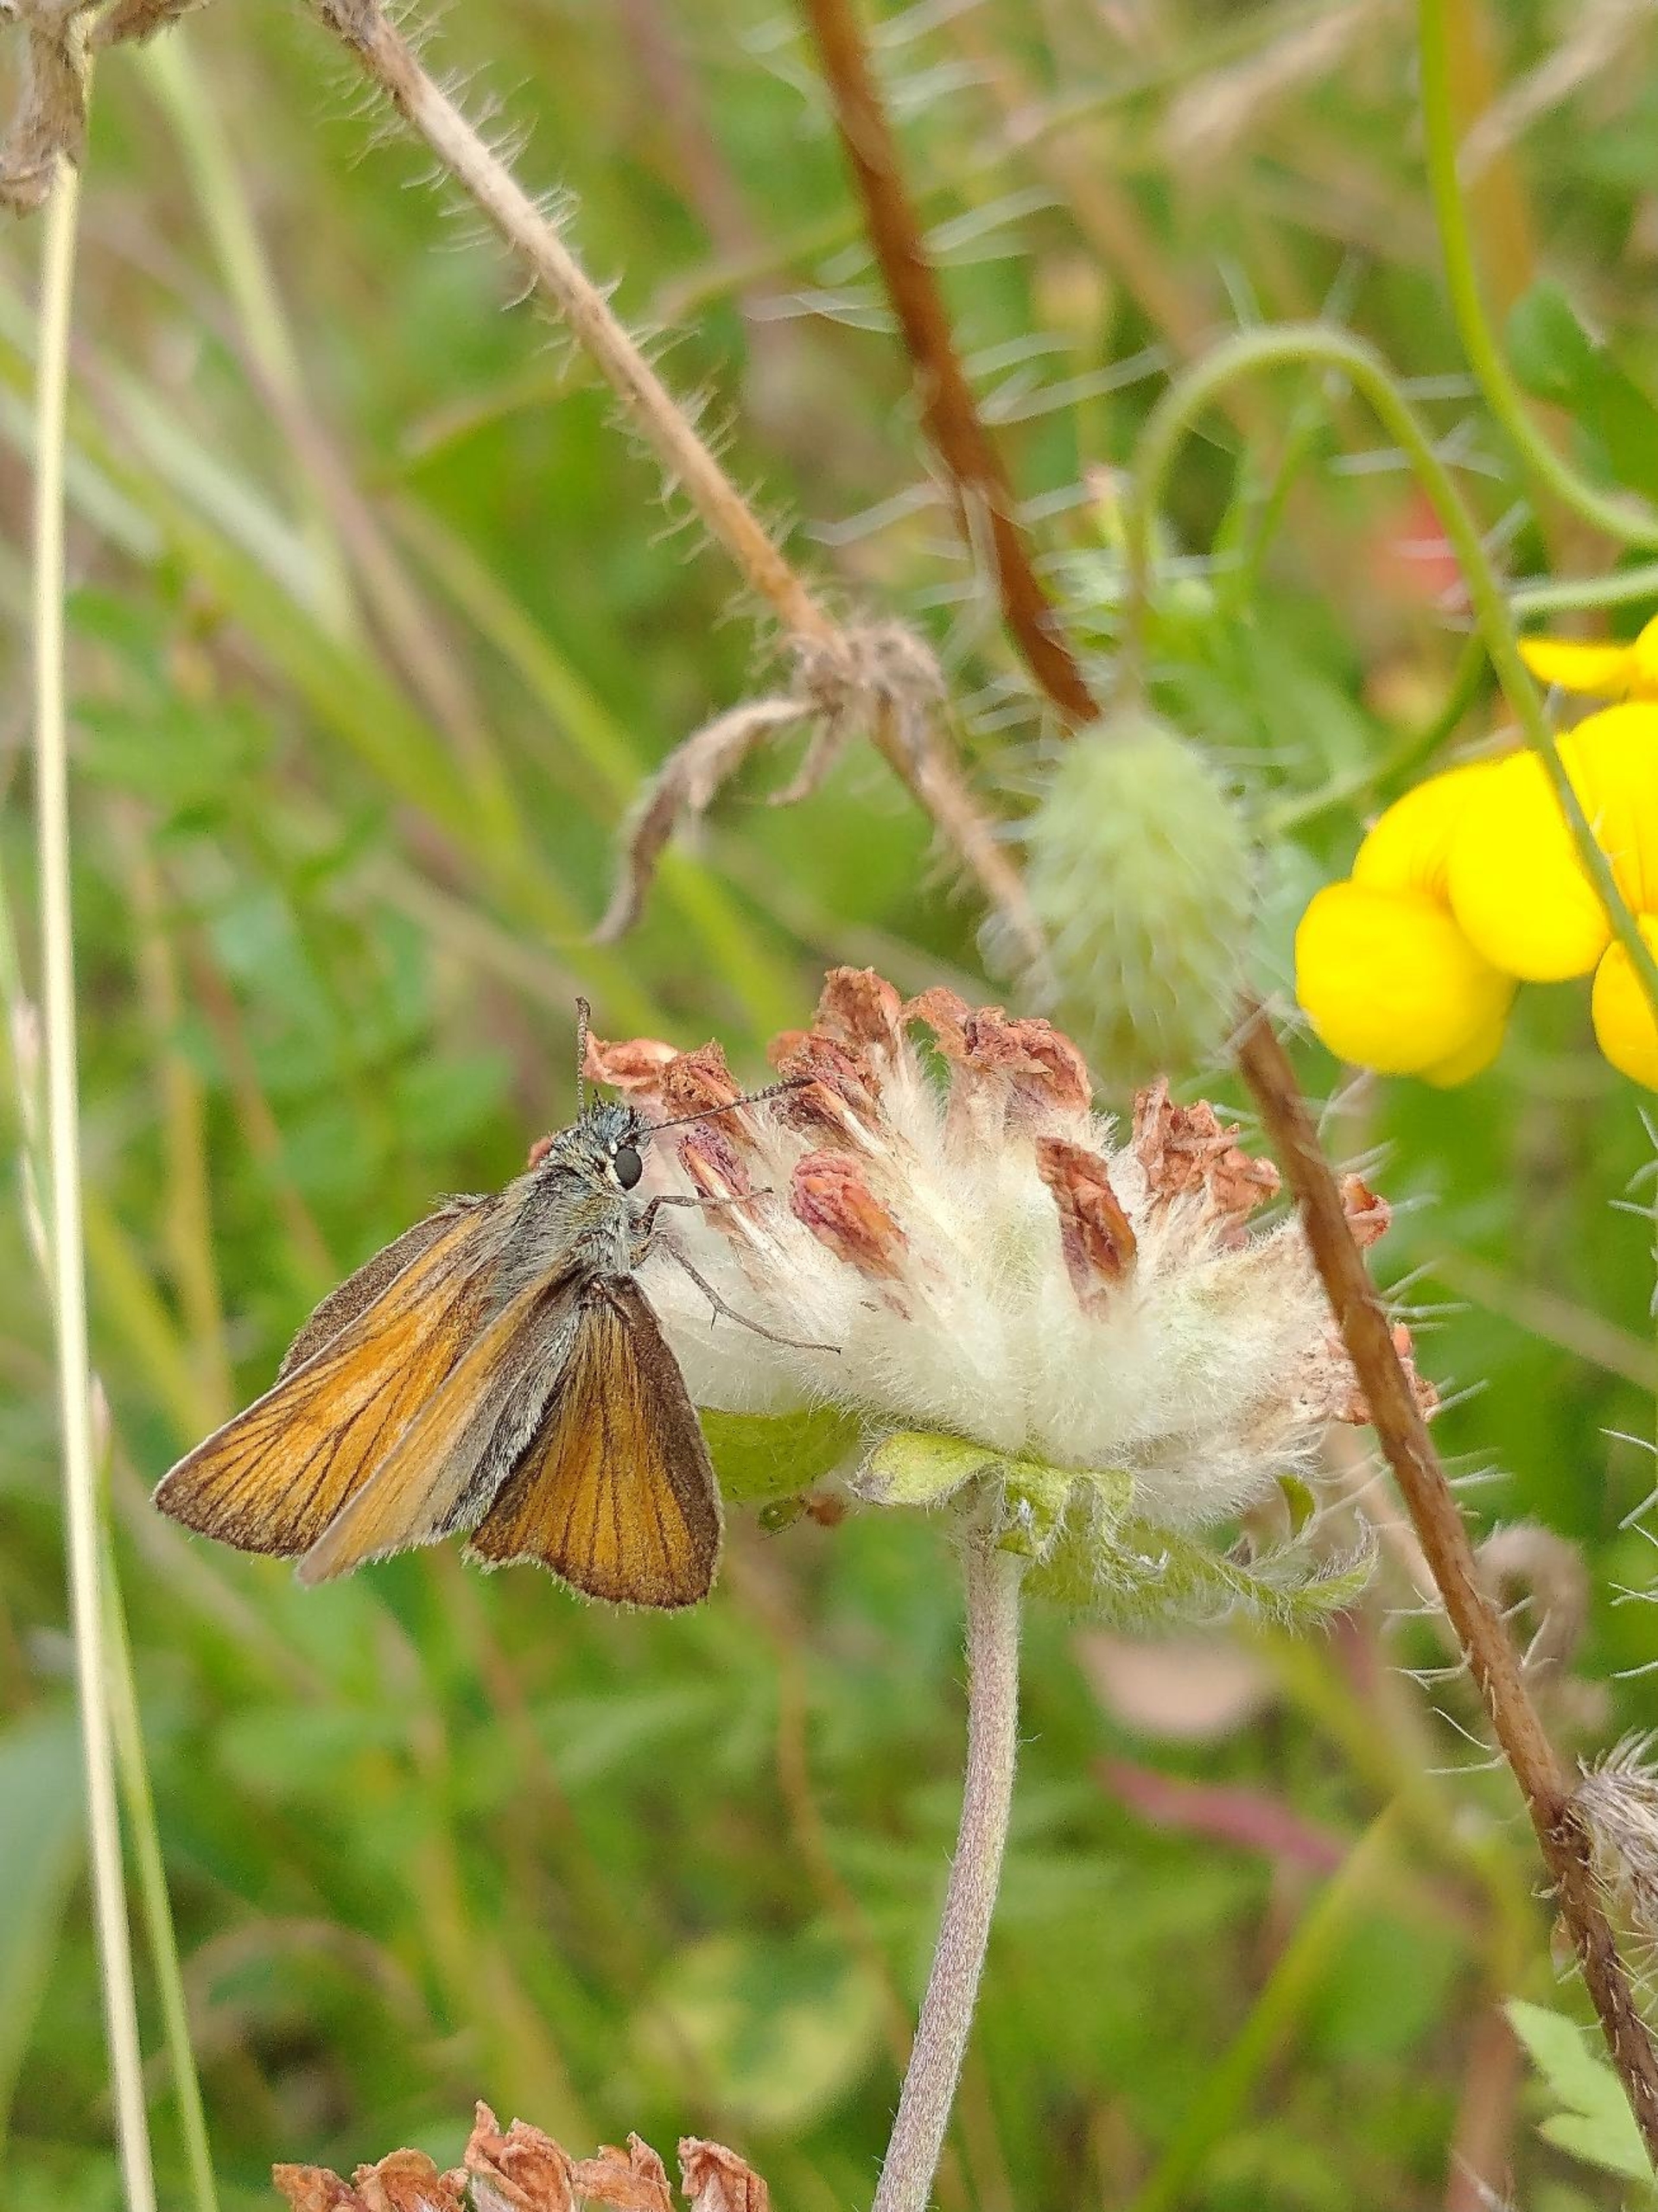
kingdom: Animalia
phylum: Arthropoda
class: Insecta
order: Lepidoptera
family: Hesperiidae
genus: Thymelicus
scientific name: Thymelicus lineola
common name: Stregbredpande
